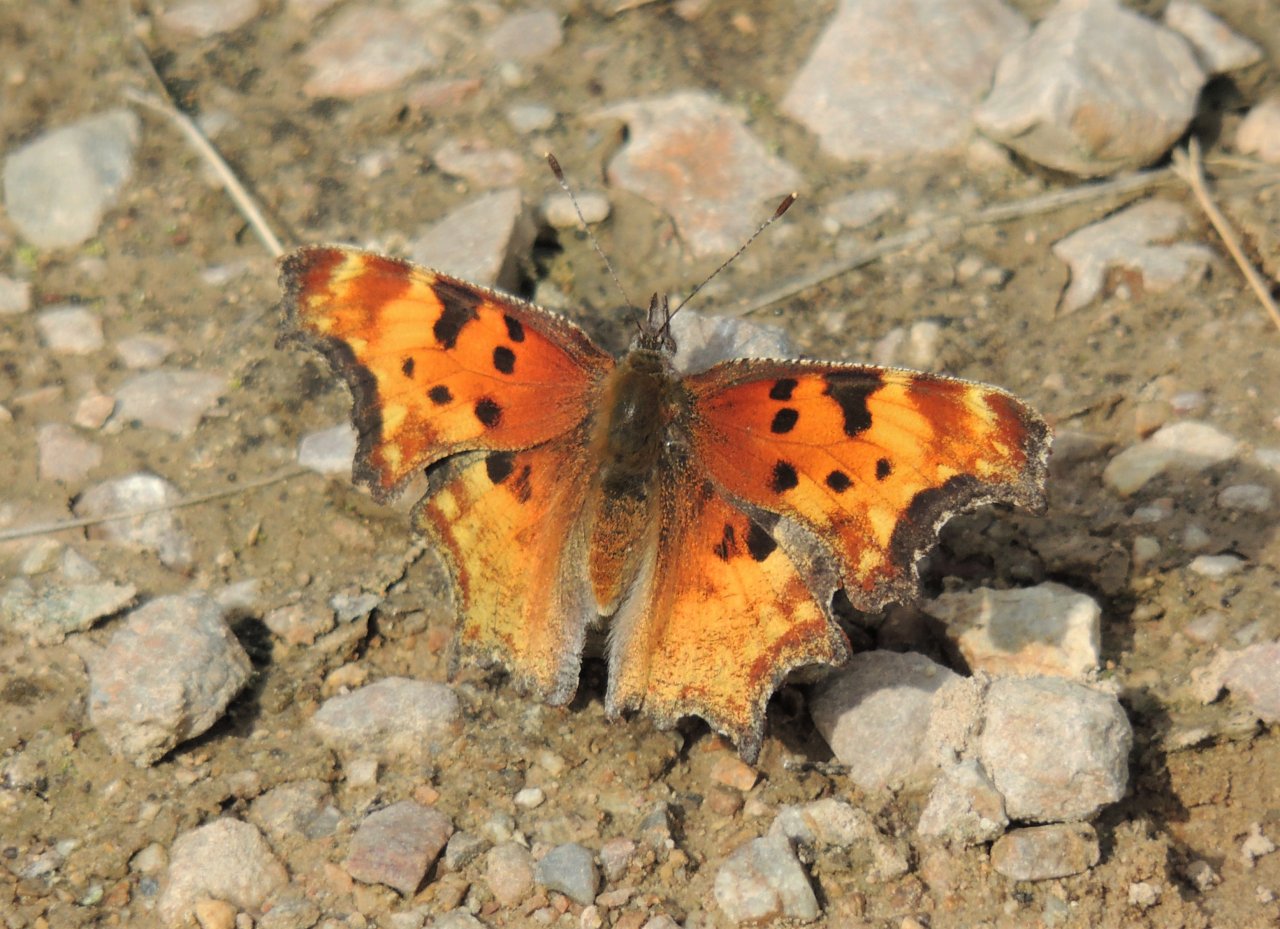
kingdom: Animalia
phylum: Arthropoda
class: Insecta
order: Lepidoptera
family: Nymphalidae
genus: Polygonia
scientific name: Polygonia gracilis
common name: Hoary Comma
